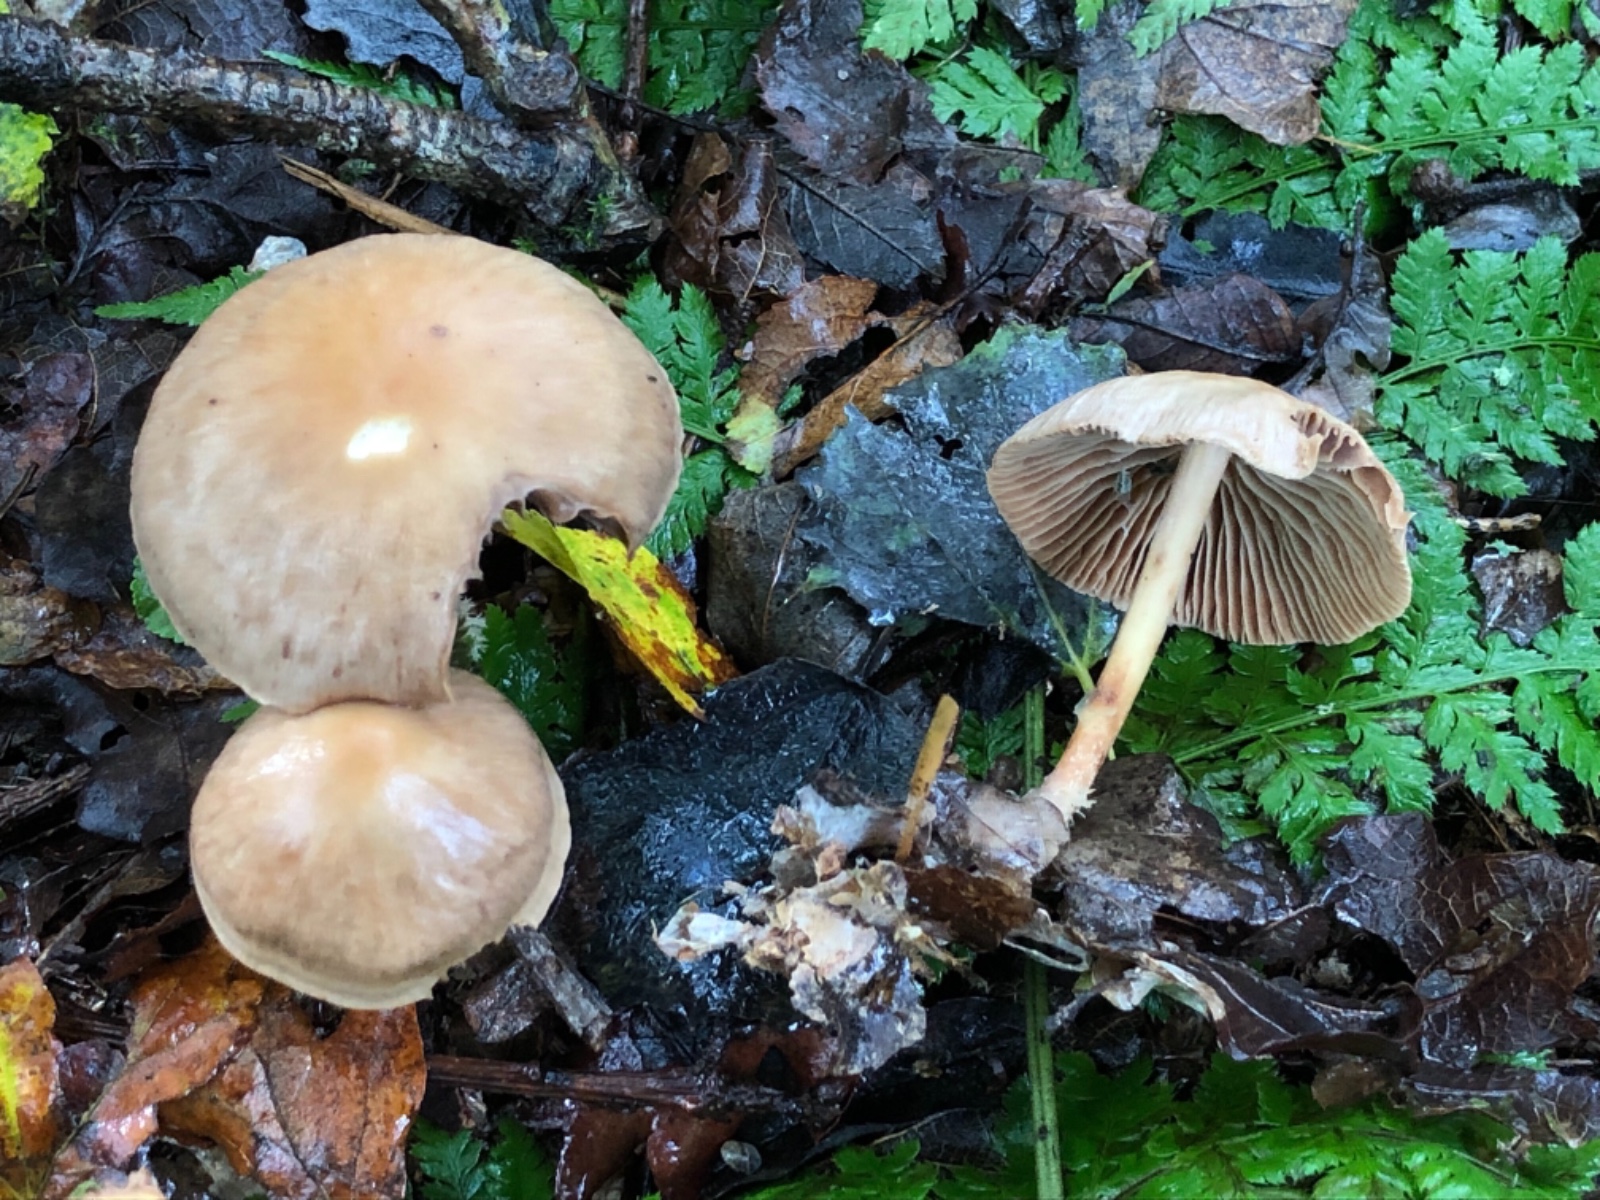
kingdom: Fungi
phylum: Basidiomycota
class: Agaricomycetes
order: Agaricales
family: Omphalotaceae
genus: Collybiopsis
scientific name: Collybiopsis peronata
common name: bestøvlet fladhat
